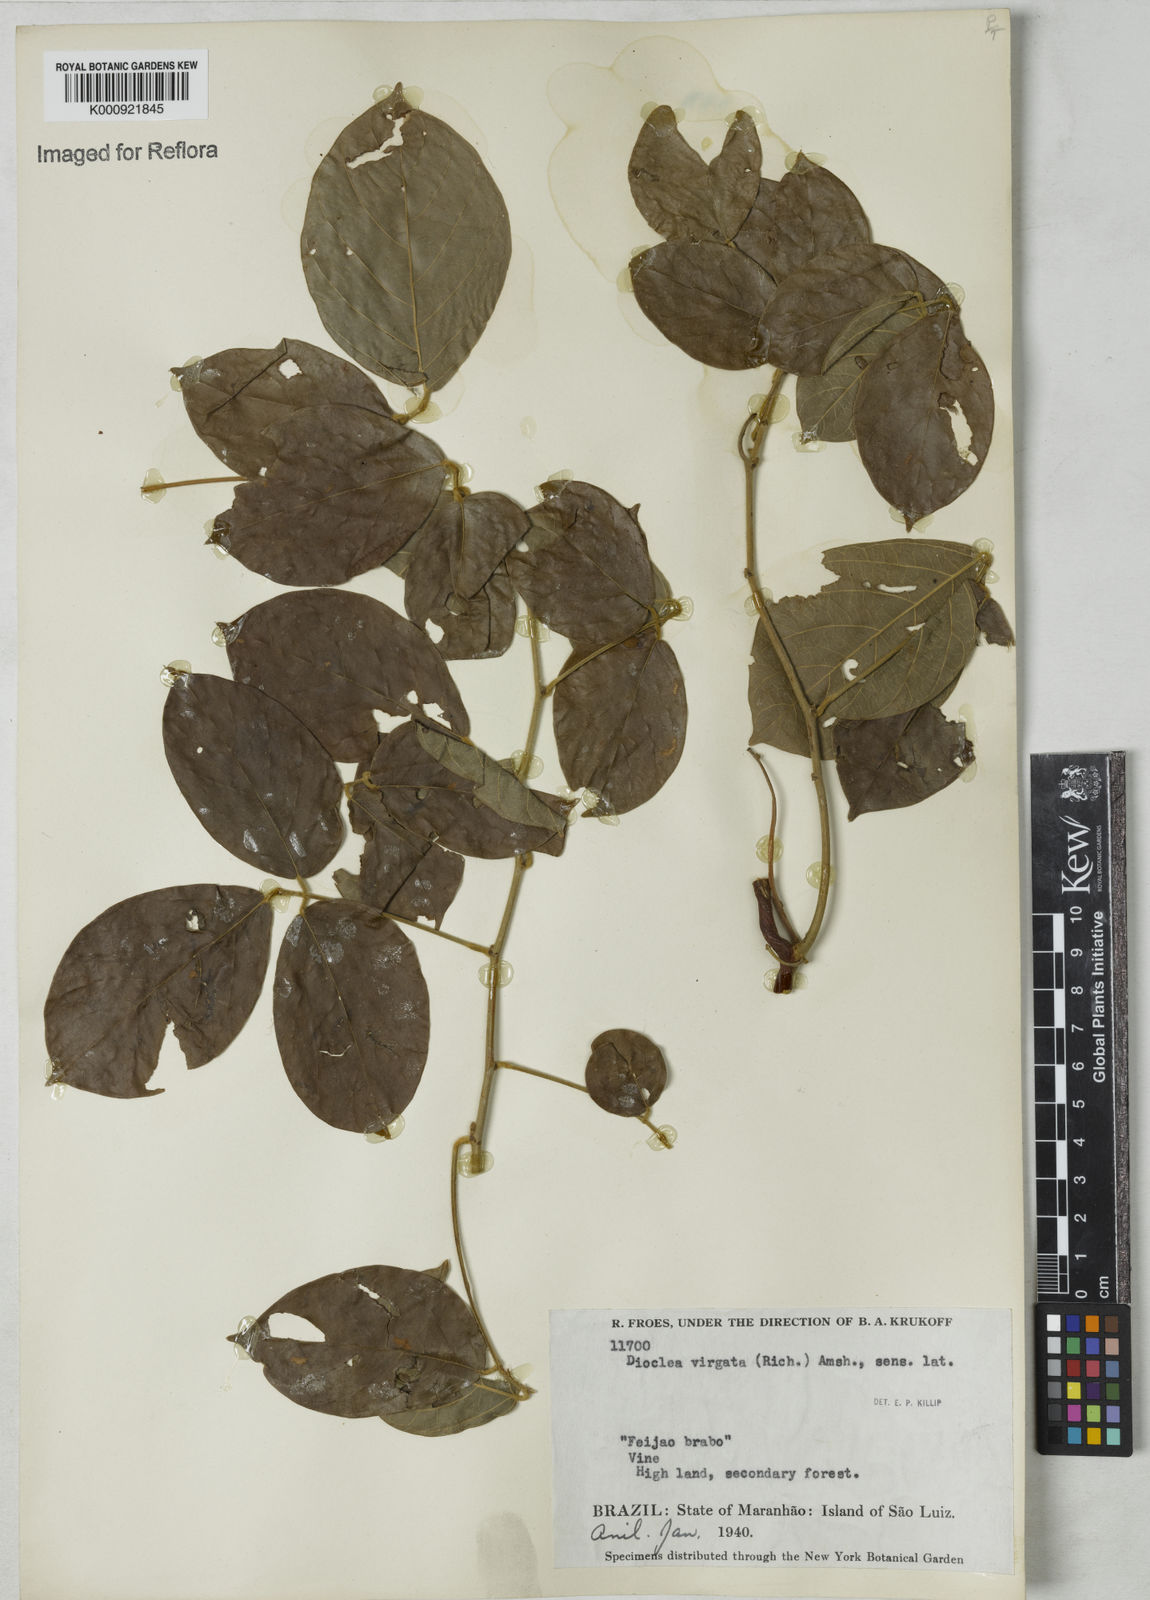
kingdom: Plantae
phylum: Tracheophyta
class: Magnoliopsida
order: Fabales
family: Fabaceae
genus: Dioclea
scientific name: Dioclea virgata
